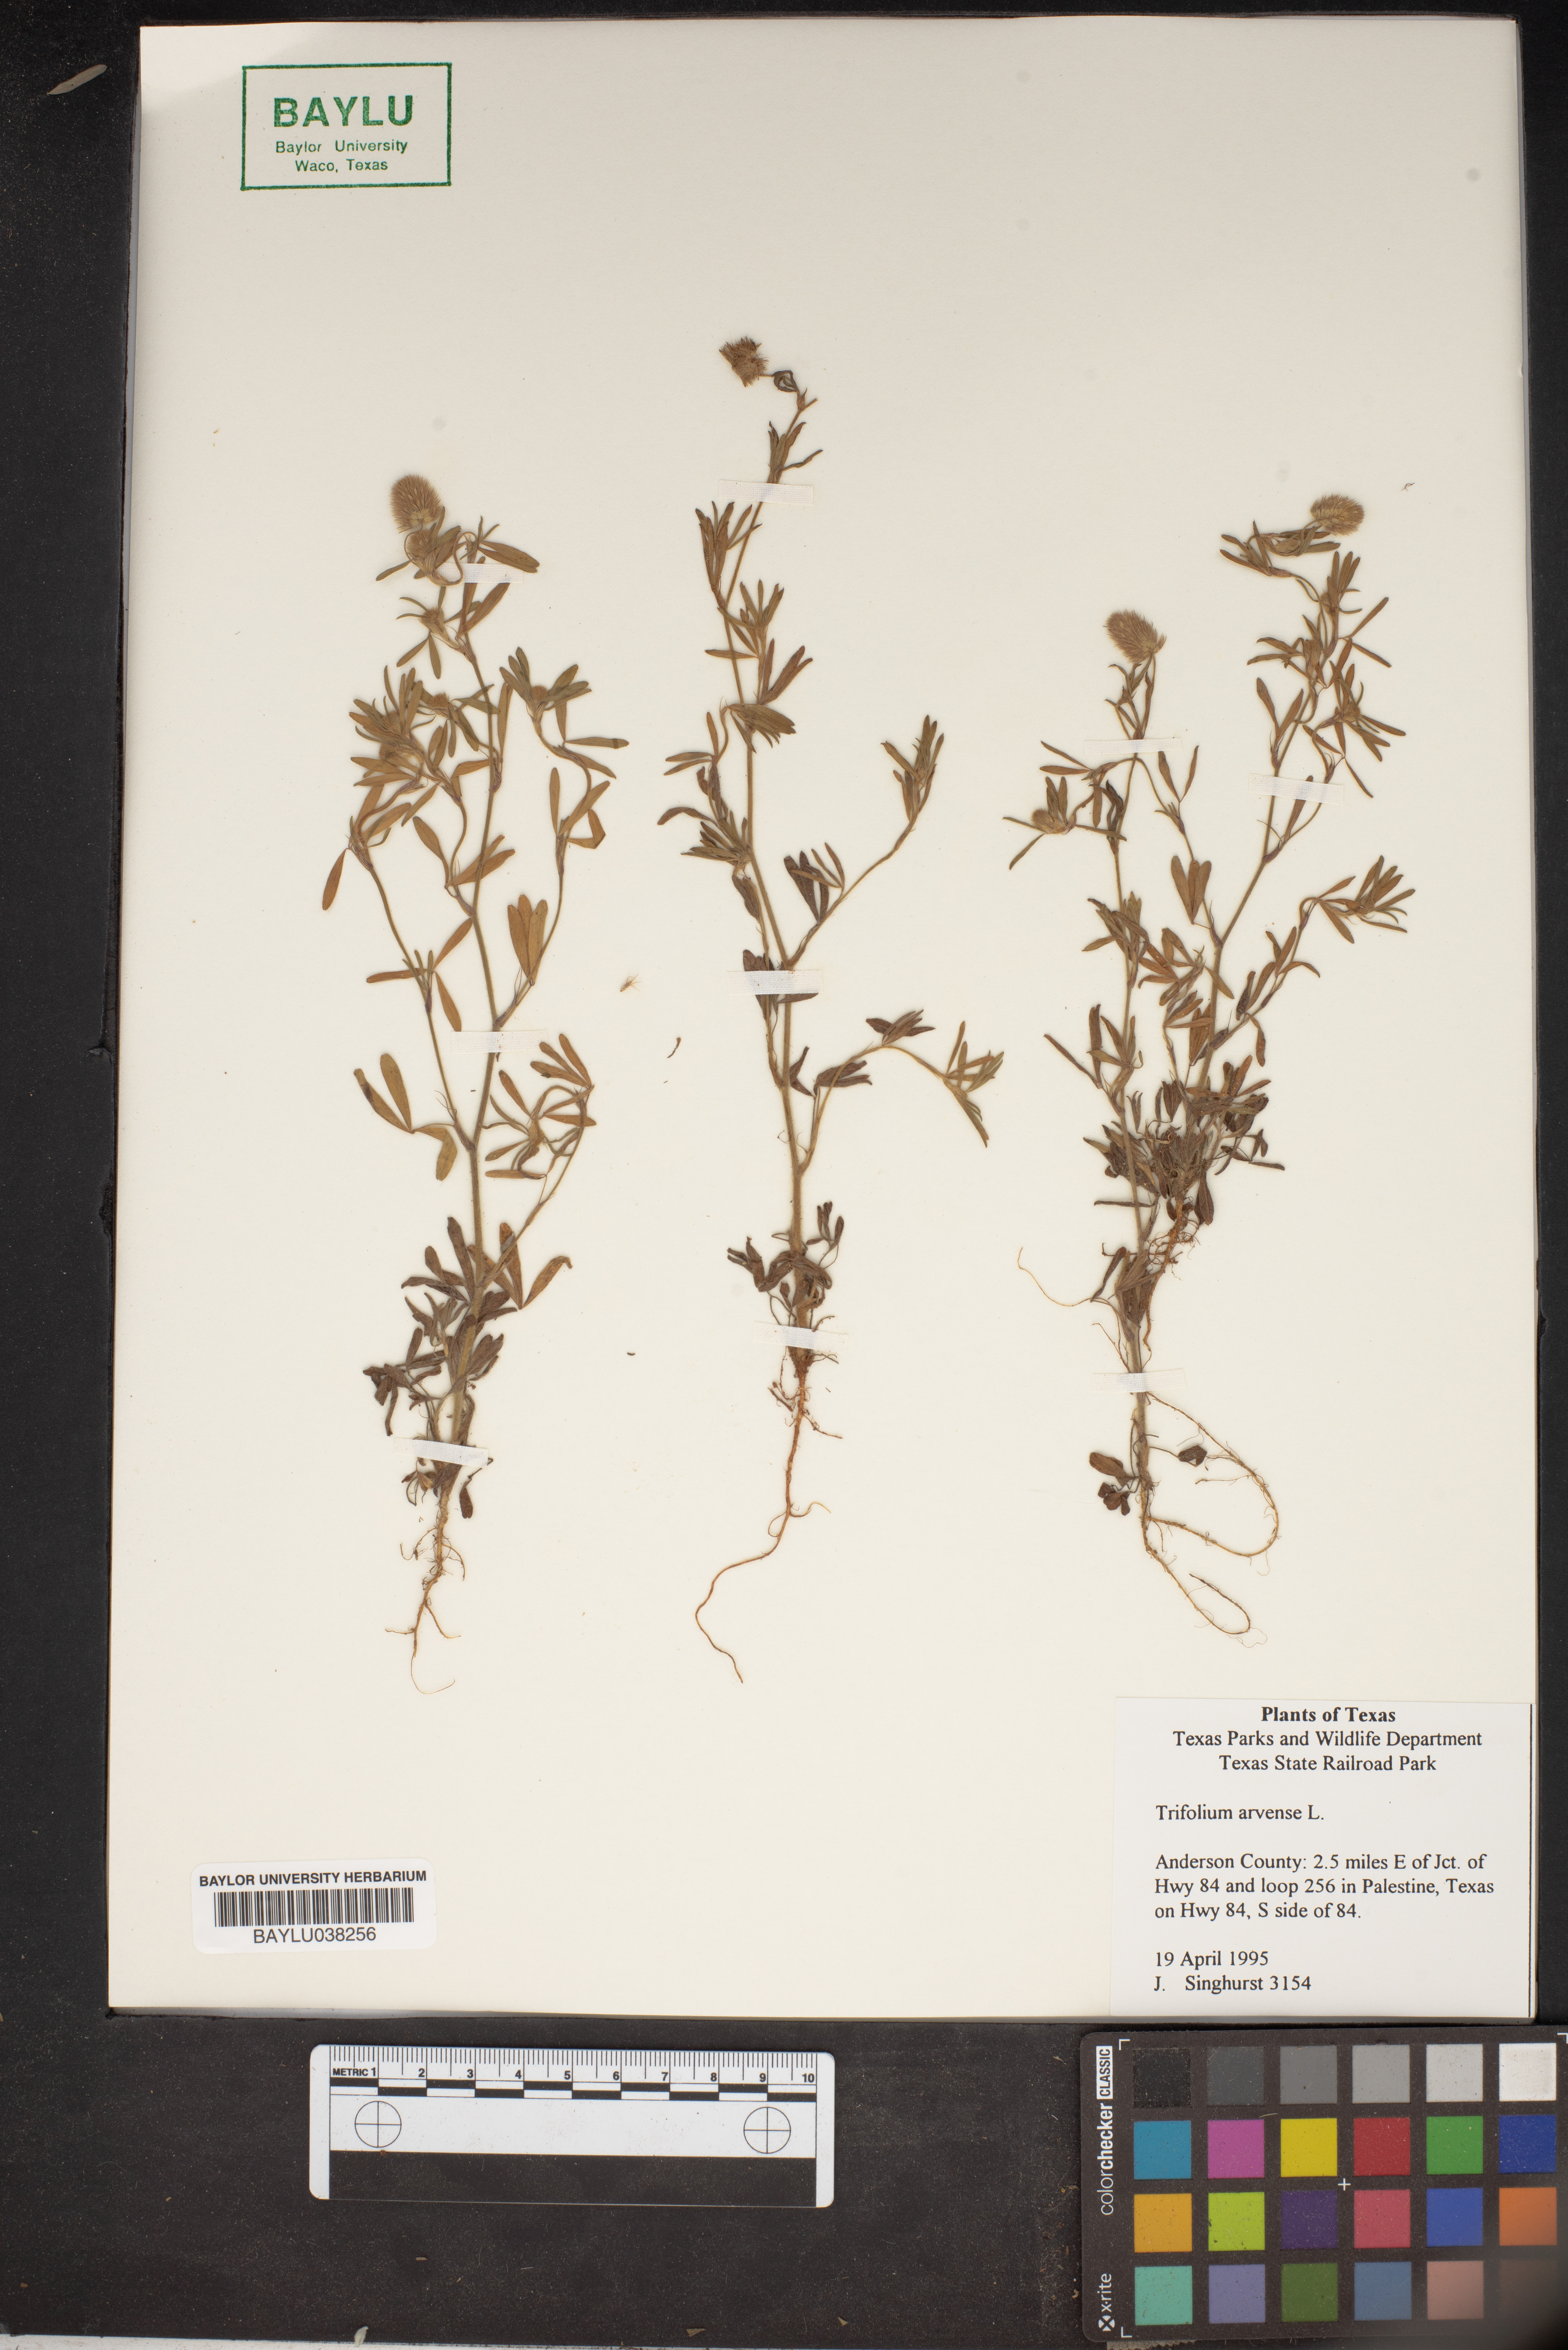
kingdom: Plantae
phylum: Tracheophyta
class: Magnoliopsida
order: Fabales
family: Fabaceae
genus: Trifolium
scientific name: Trifolium arvense
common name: Hare's-foot clover
